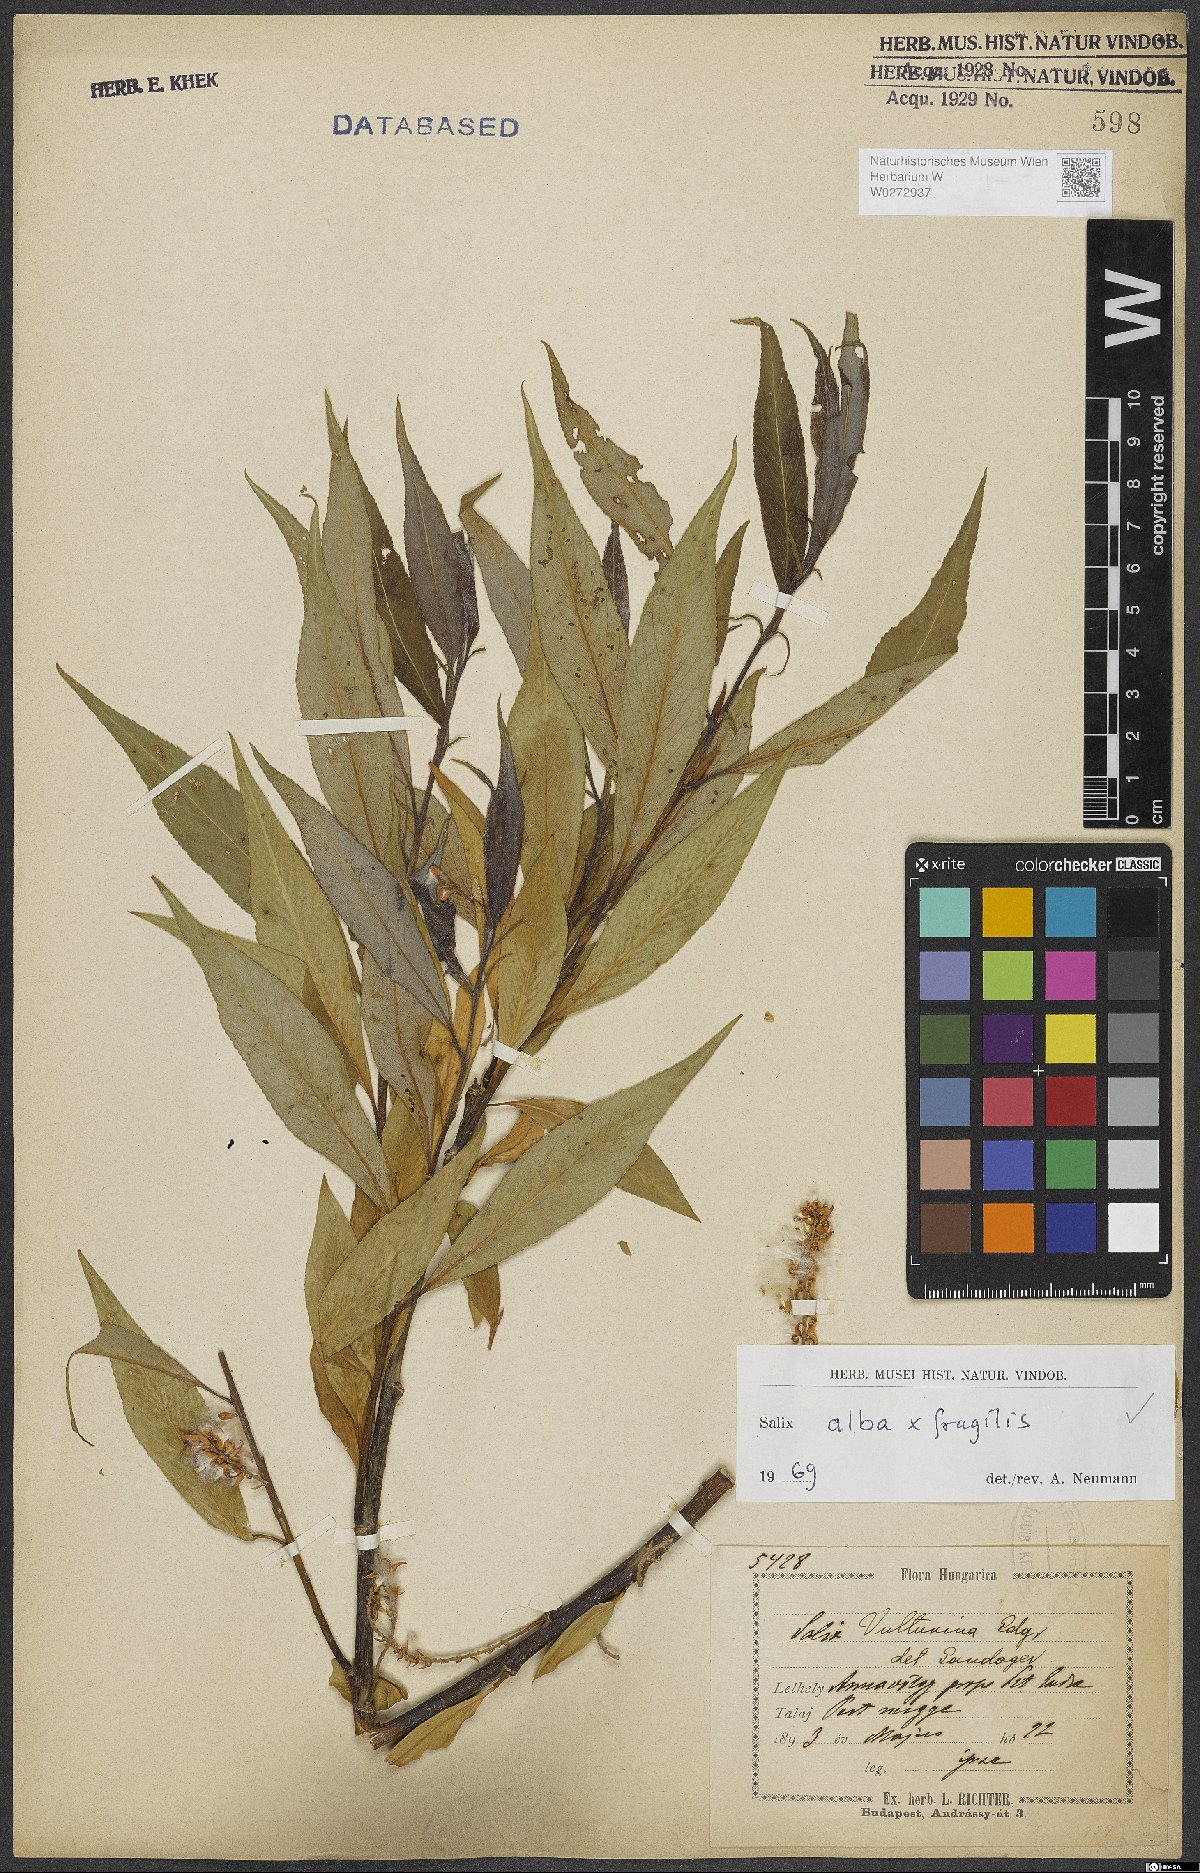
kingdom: Plantae
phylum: Tracheophyta
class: Magnoliopsida
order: Malpighiales
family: Salicaceae
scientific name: Salicaceae
